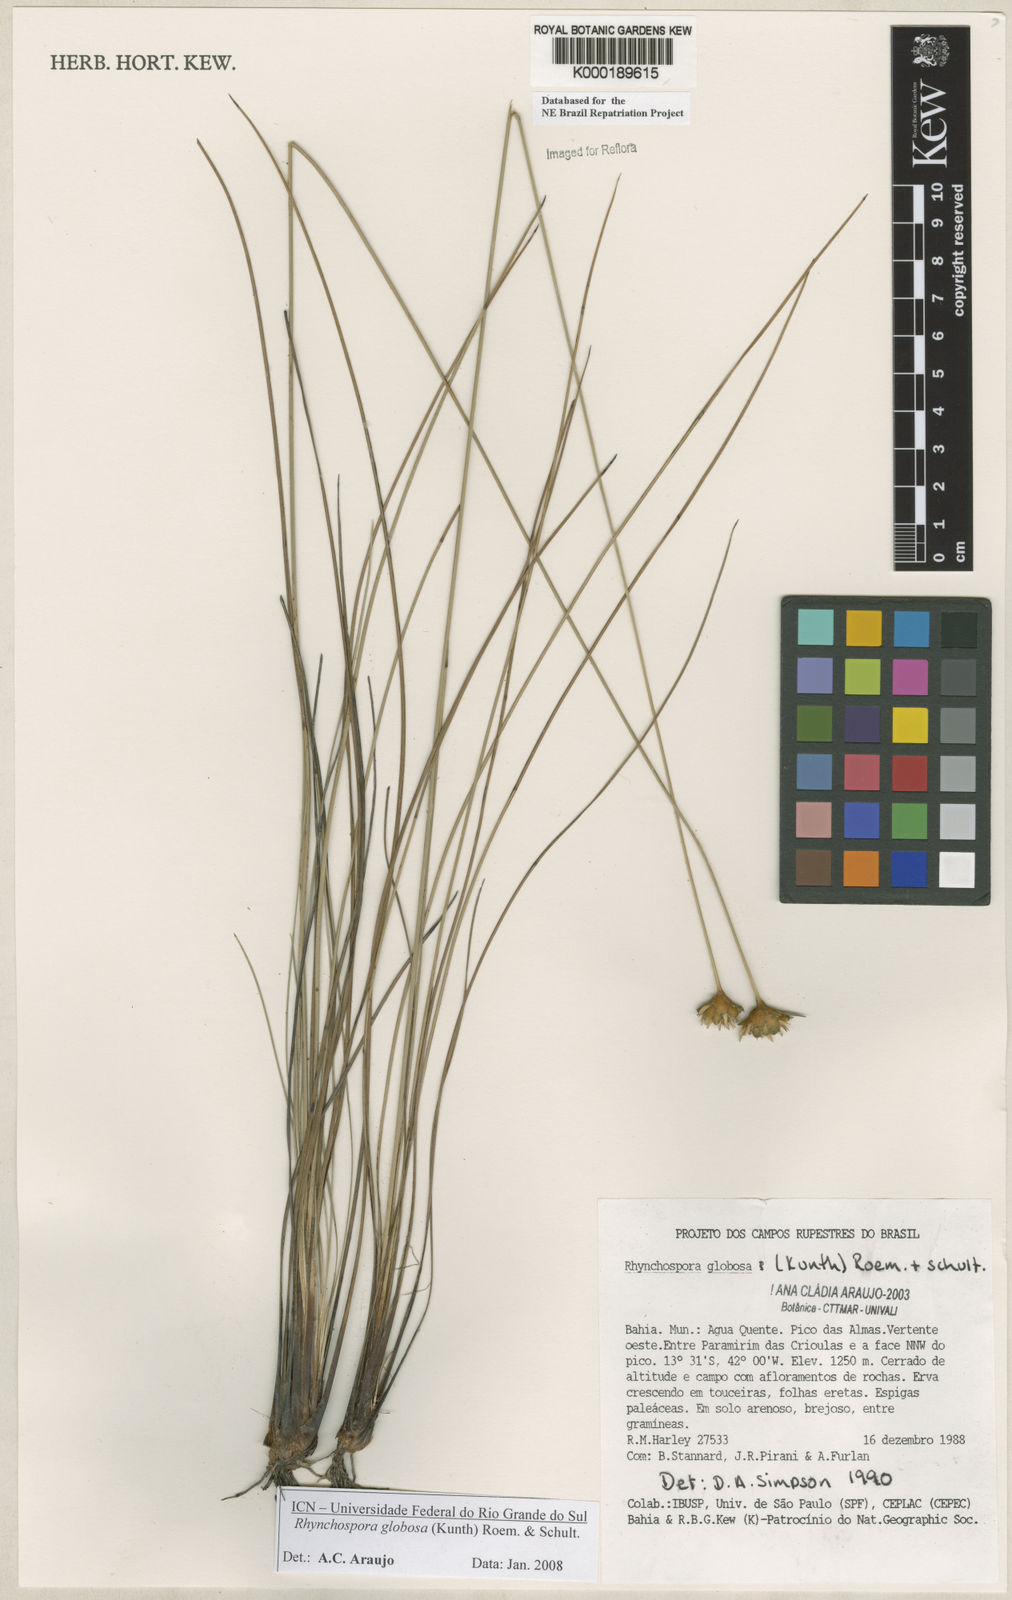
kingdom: Plantae
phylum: Tracheophyta
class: Liliopsida
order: Poales
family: Cyperaceae
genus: Rhynchospora
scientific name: Rhynchospora globosa
